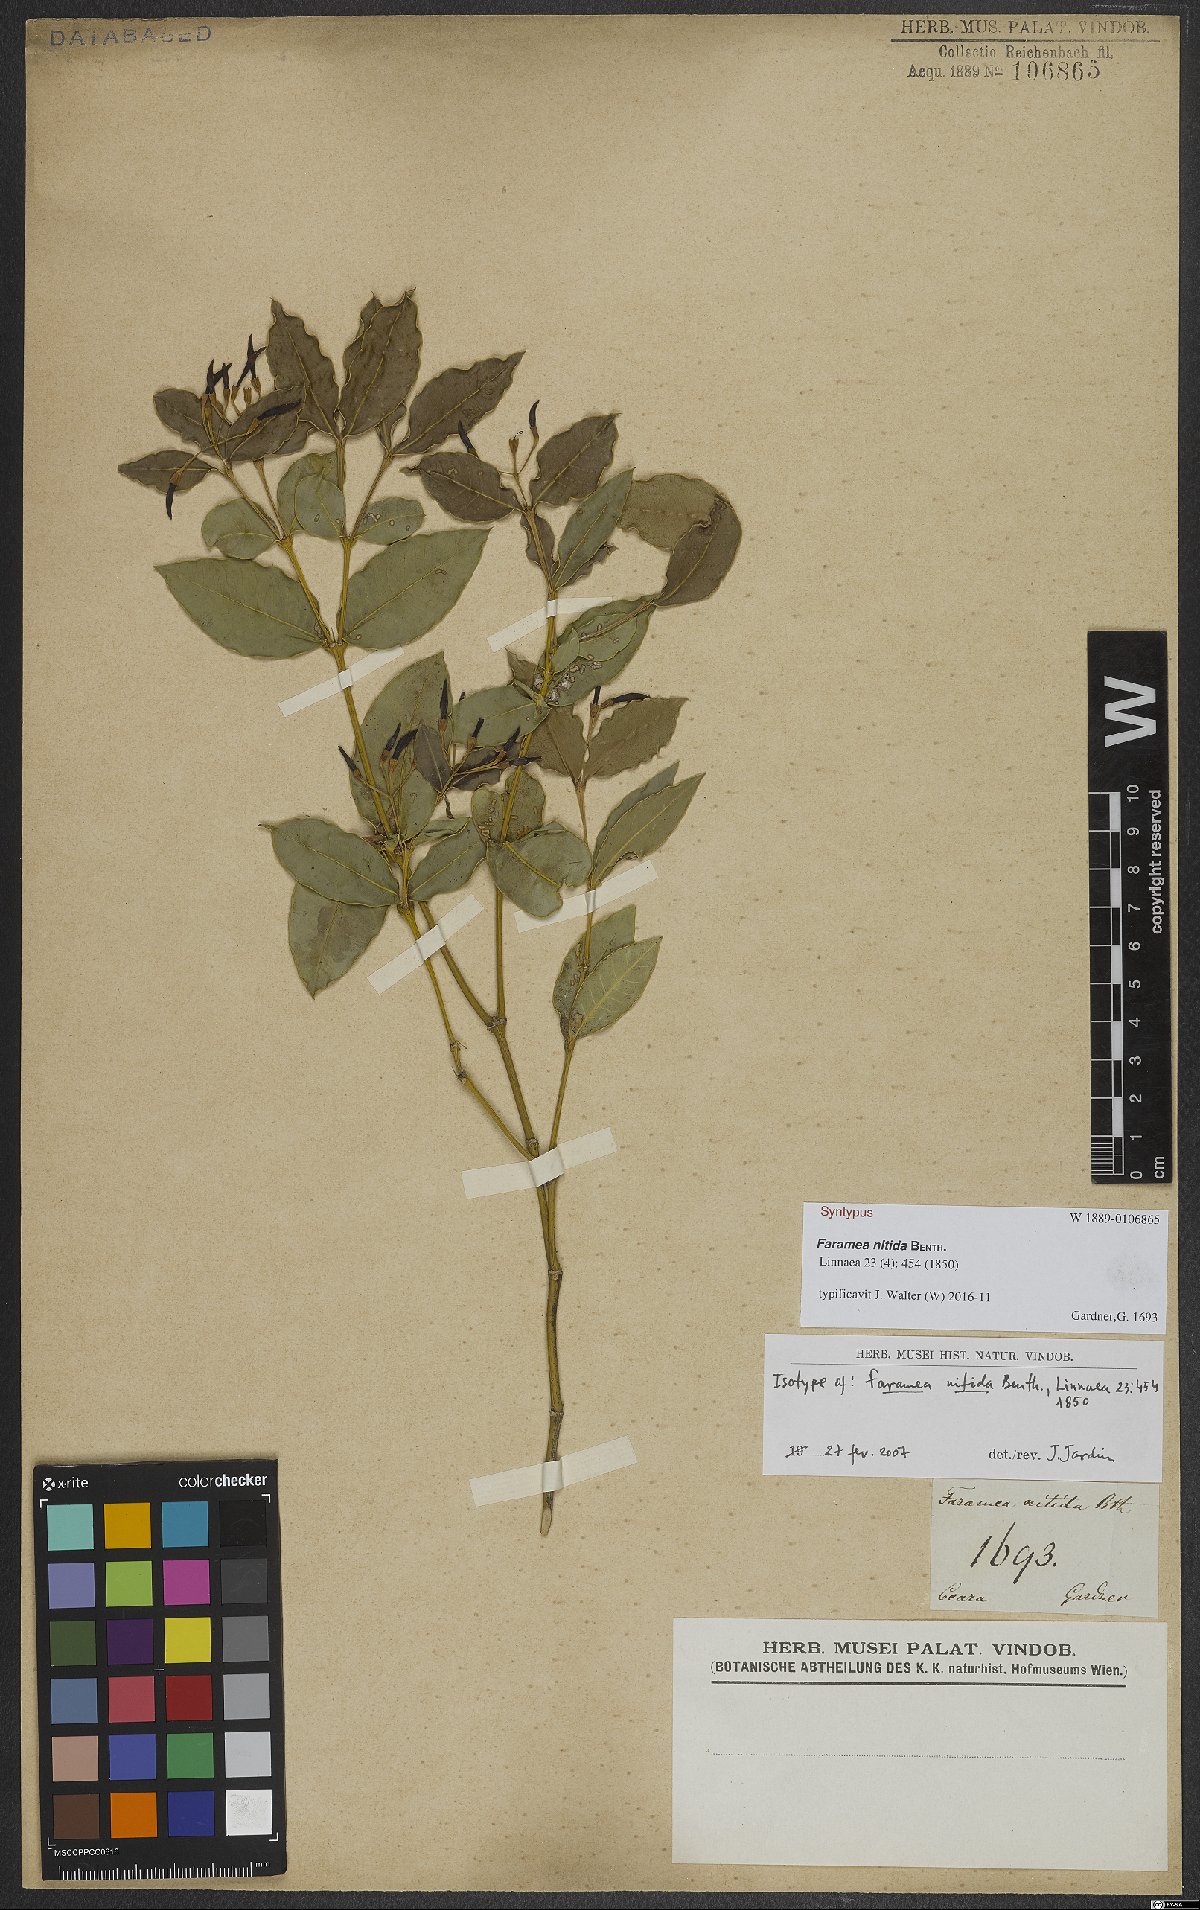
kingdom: Plantae
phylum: Tracheophyta
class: Magnoliopsida
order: Gentianales
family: Rubiaceae
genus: Faramea
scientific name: Faramea nitida
